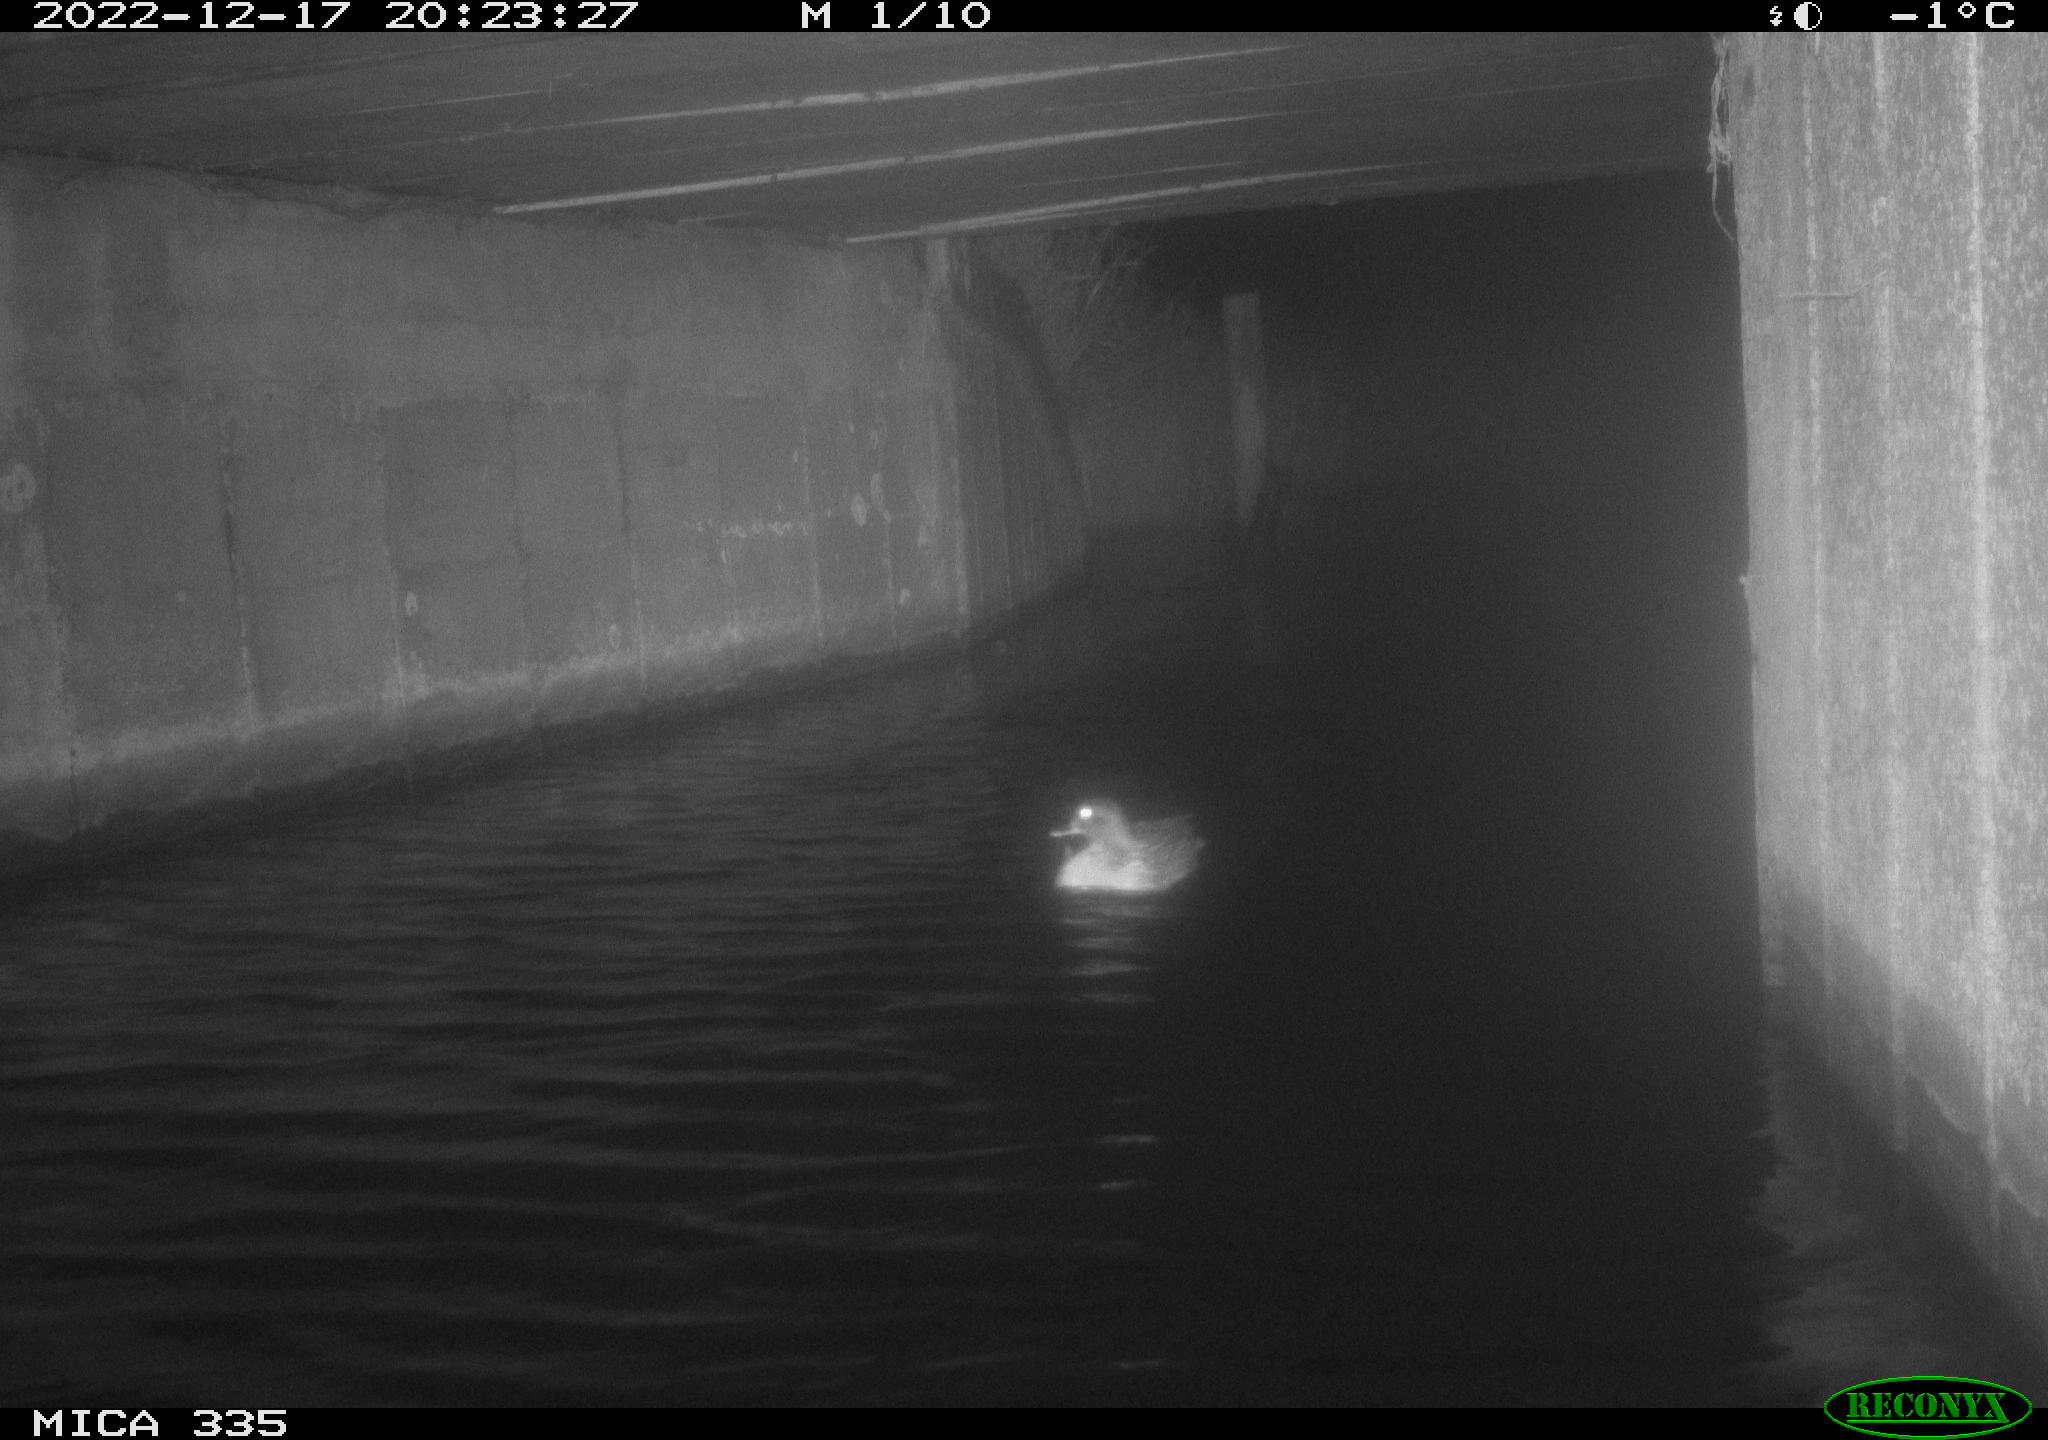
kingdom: Animalia
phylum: Chordata
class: Aves
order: Anseriformes
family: Anatidae
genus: Anas
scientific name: Anas
